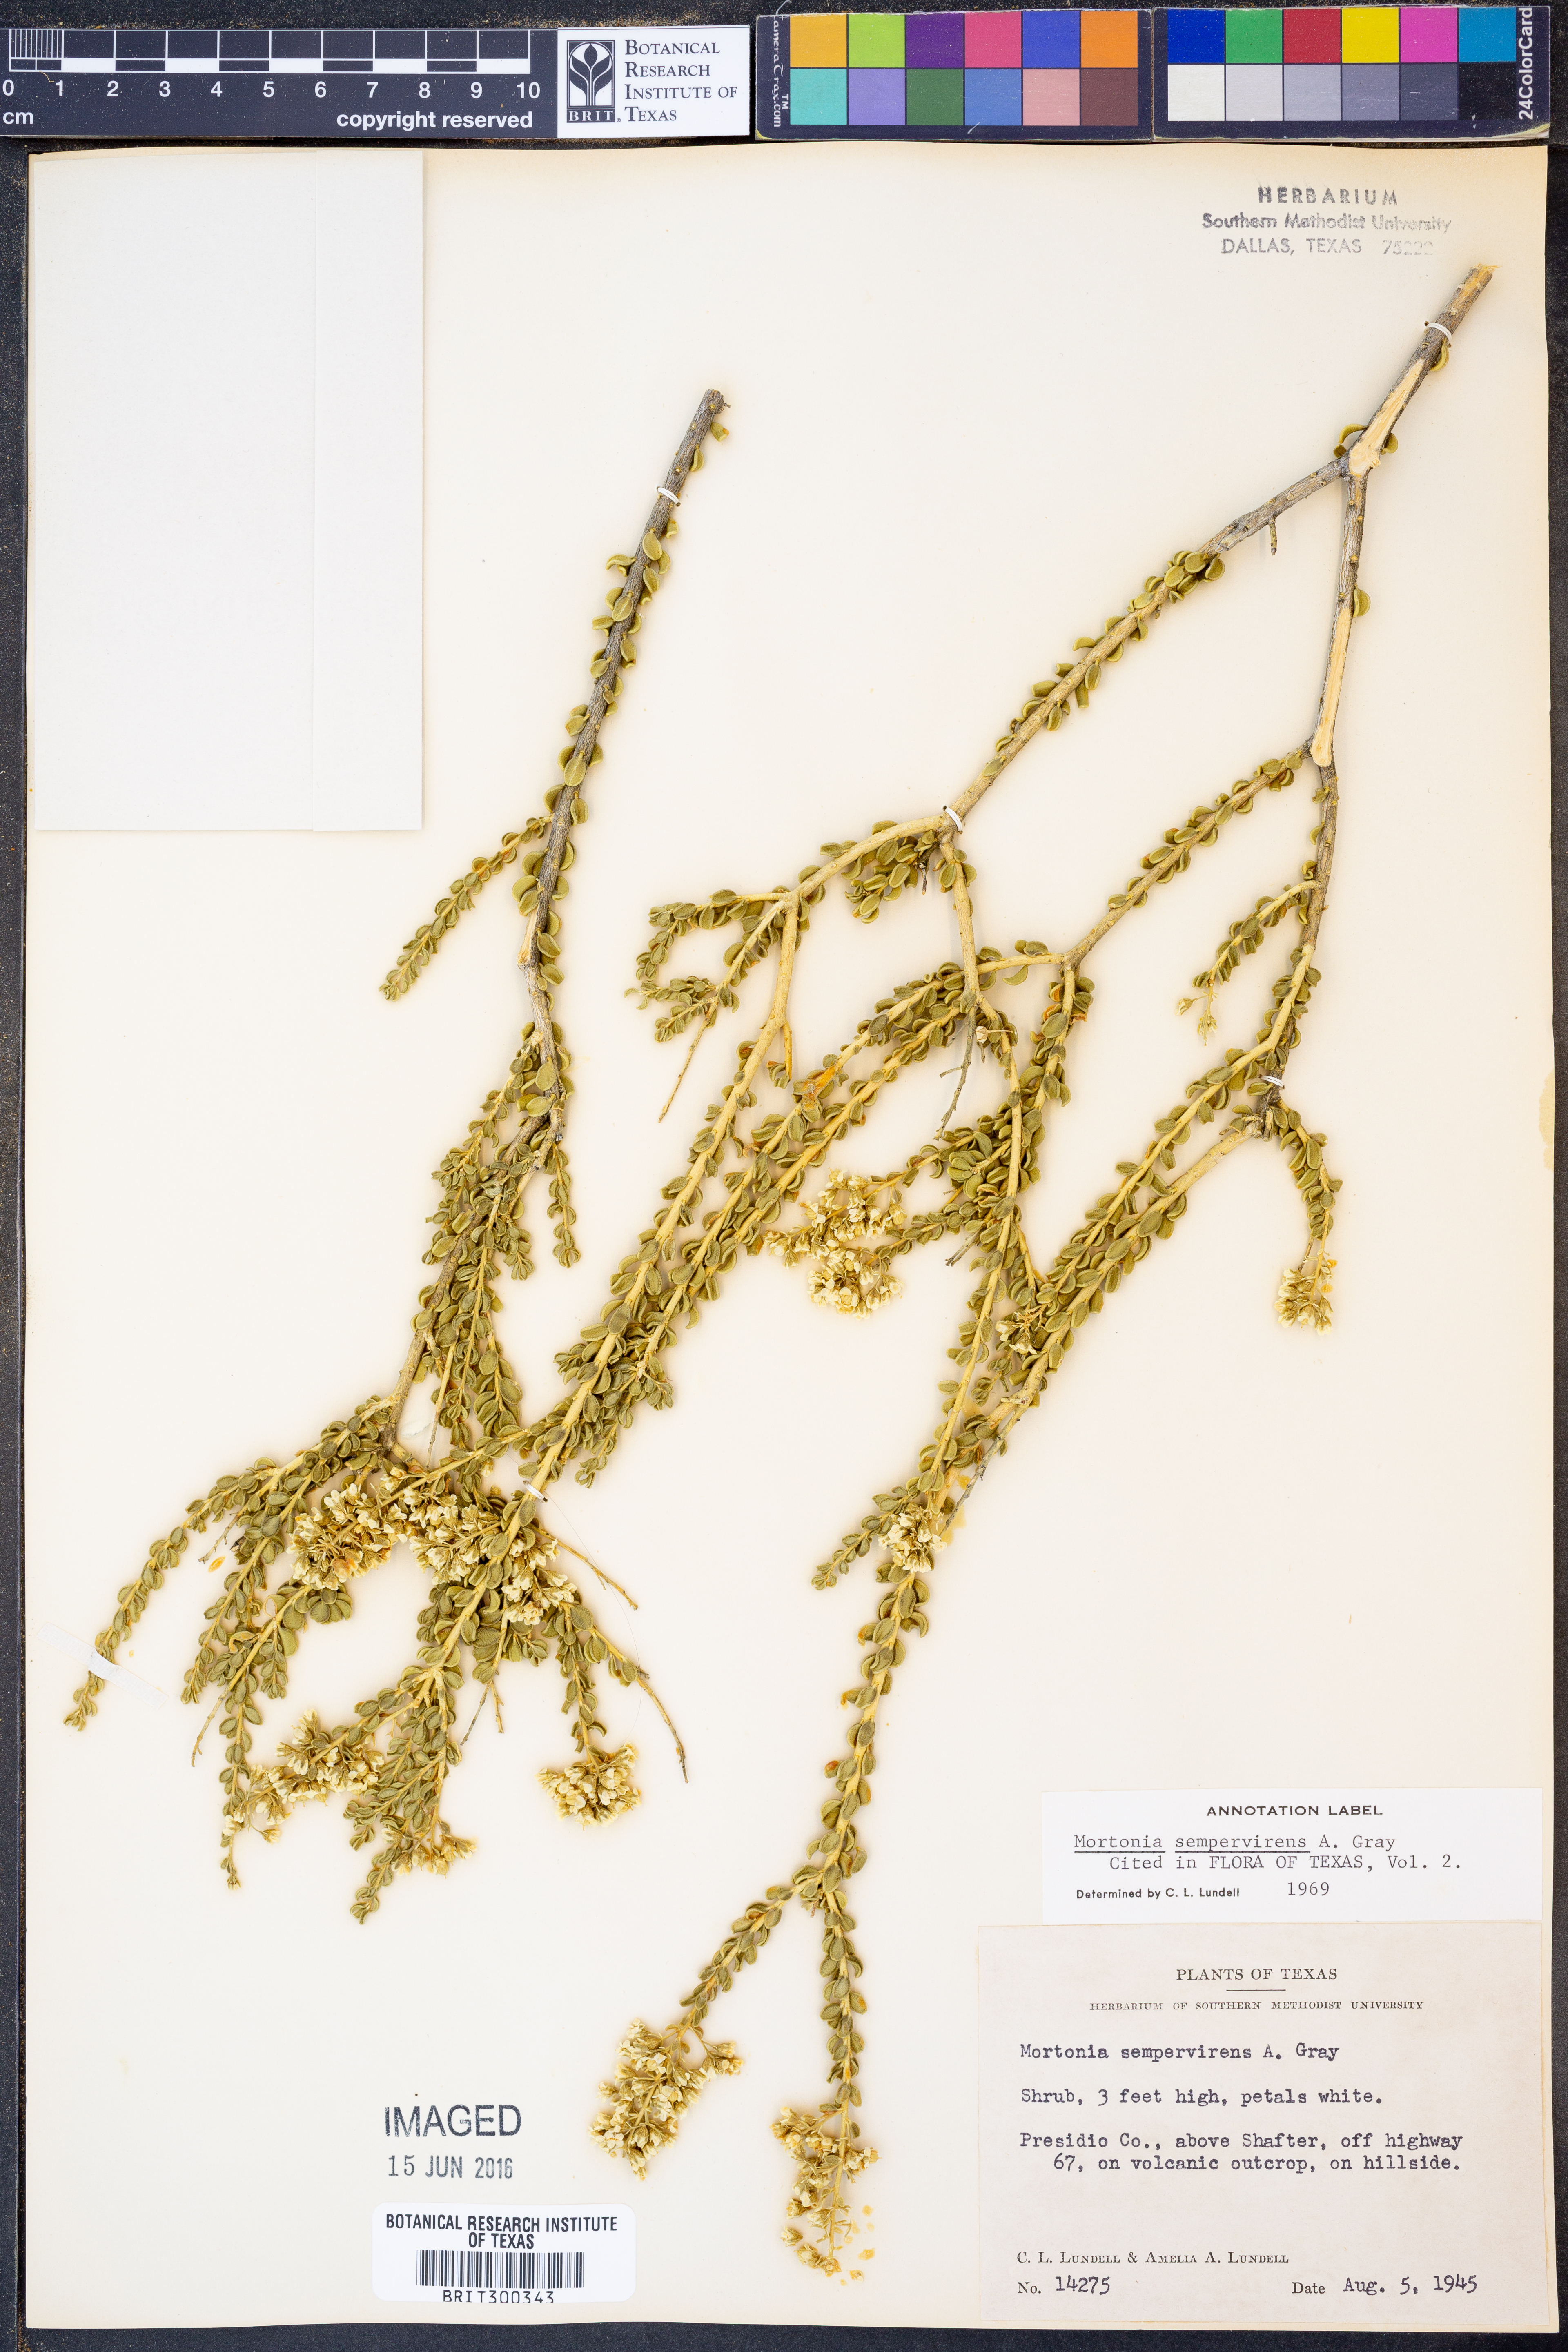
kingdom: Plantae
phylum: Tracheophyta
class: Magnoliopsida
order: Celastrales
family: Celastraceae
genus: Mortonia
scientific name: Mortonia sempervirens
